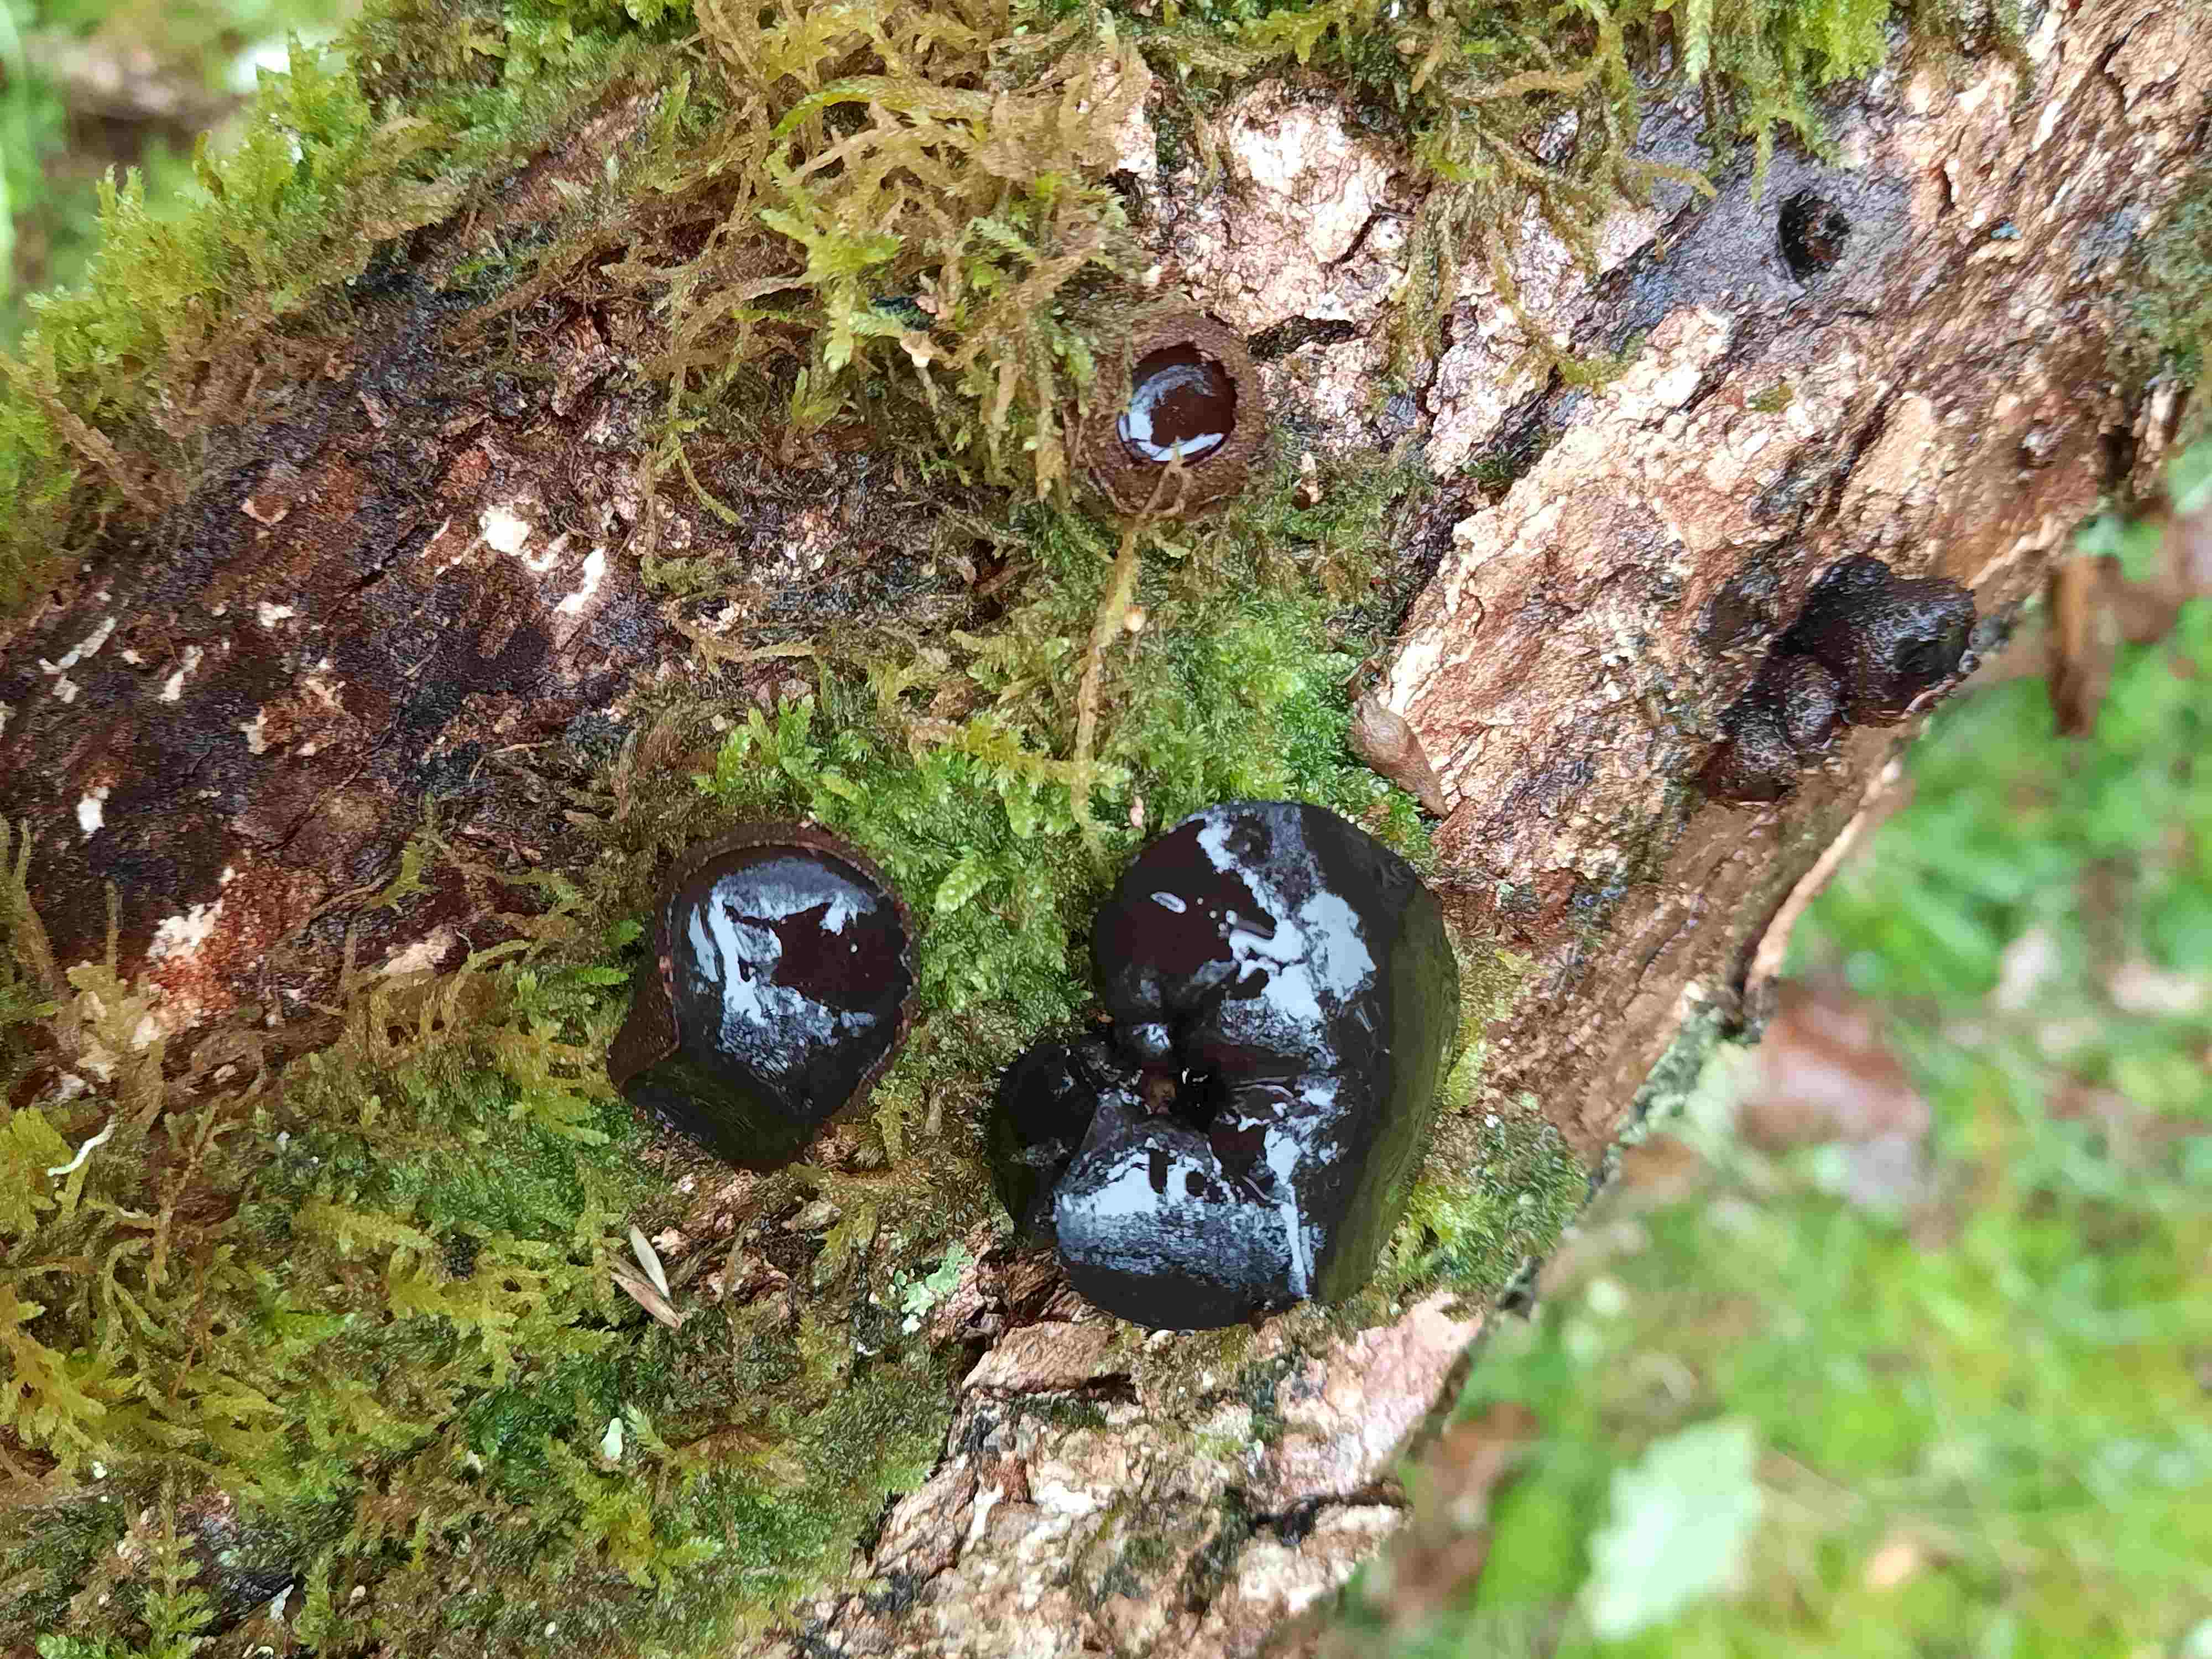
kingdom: Fungi
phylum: Ascomycota
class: Leotiomycetes
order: Phacidiales
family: Phacidiaceae
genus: Bulgaria
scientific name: Bulgaria inquinans
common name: afsmittende topsvamp
